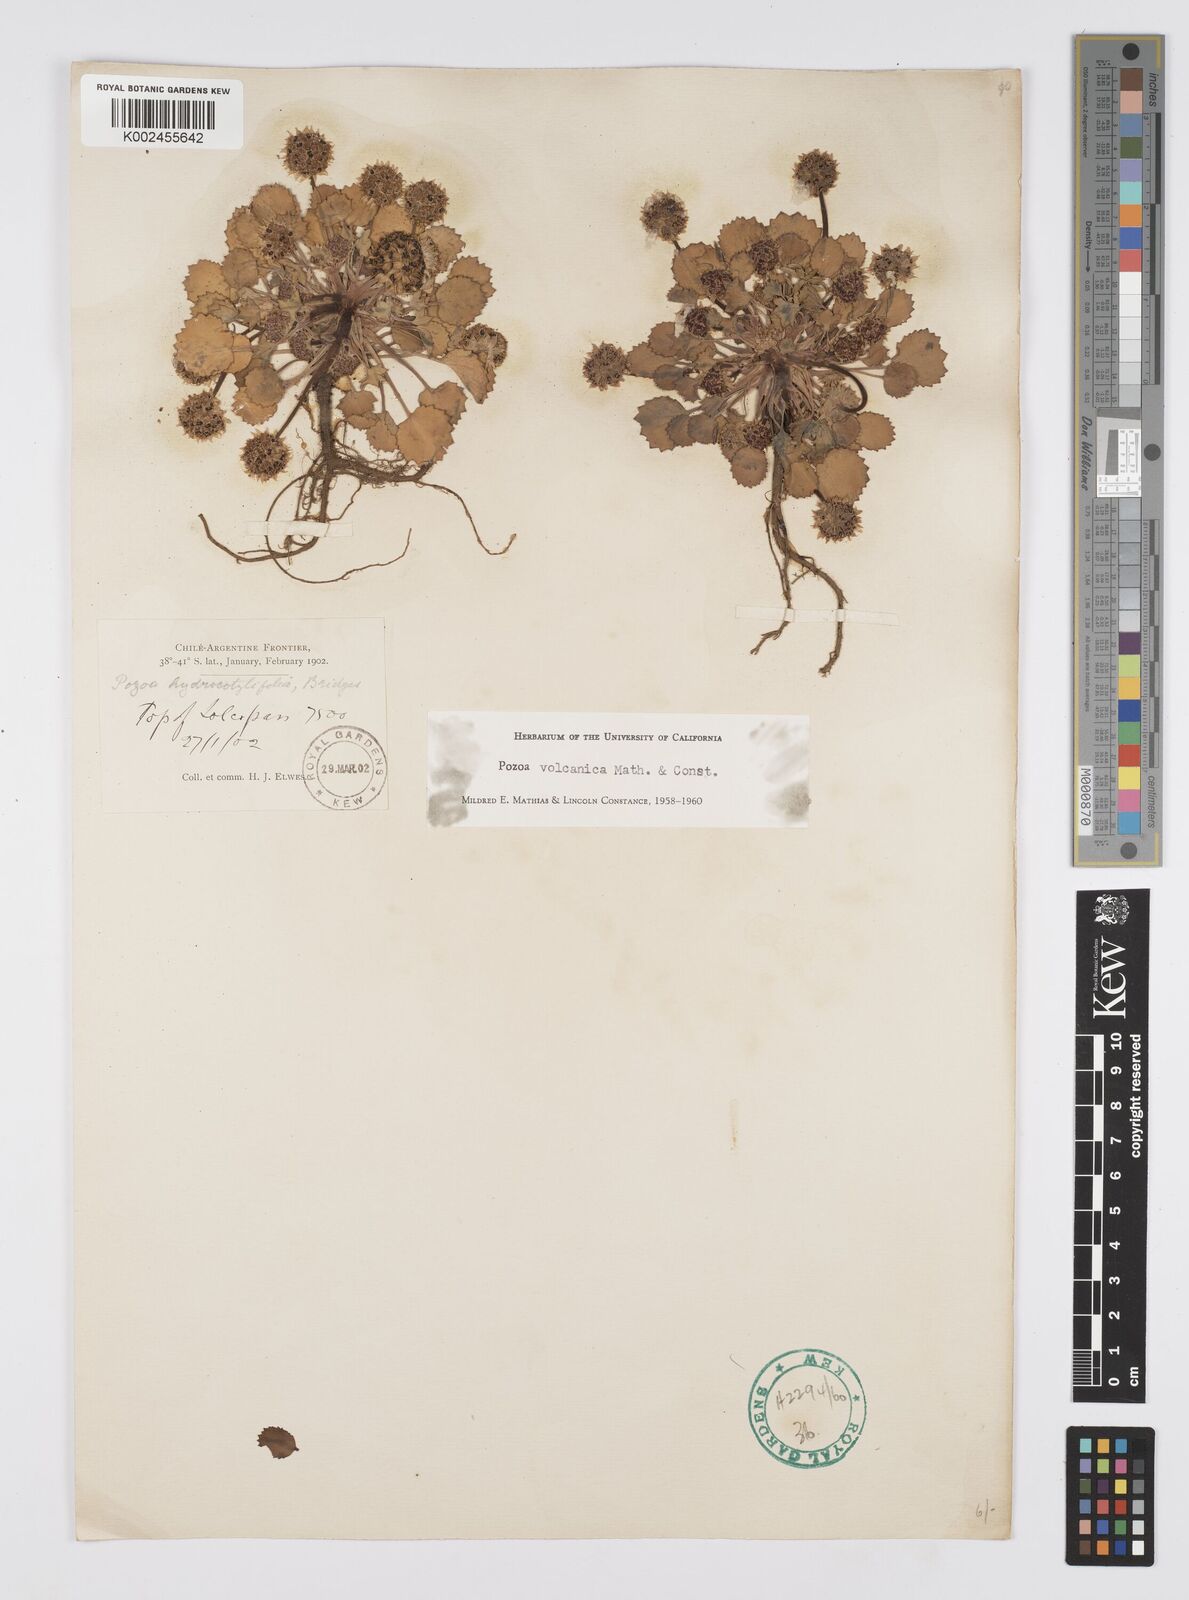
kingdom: Plantae
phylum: Tracheophyta
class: Magnoliopsida
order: Apiales
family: Apiaceae
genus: Pozoa
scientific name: Pozoa volcanica
